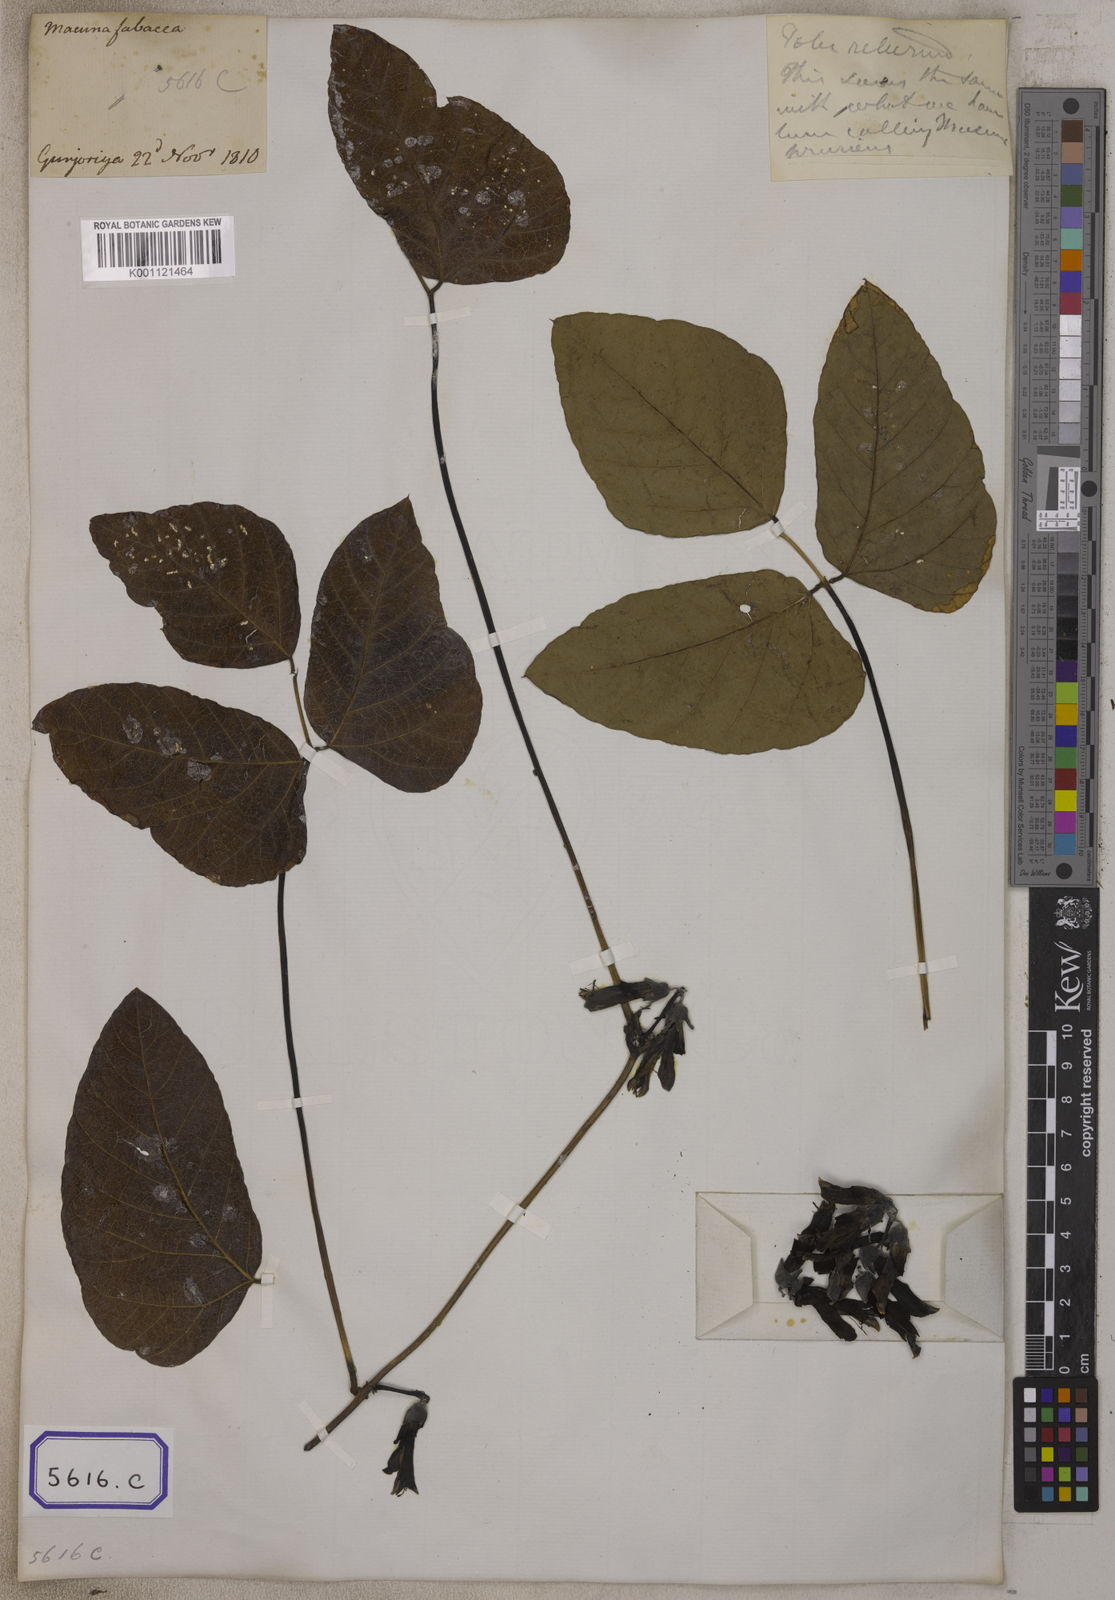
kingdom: Plantae
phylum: Tracheophyta
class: Magnoliopsida
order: Fabales
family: Fabaceae
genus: Mucuna
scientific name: Mucuna pruriens
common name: Cow-itch
